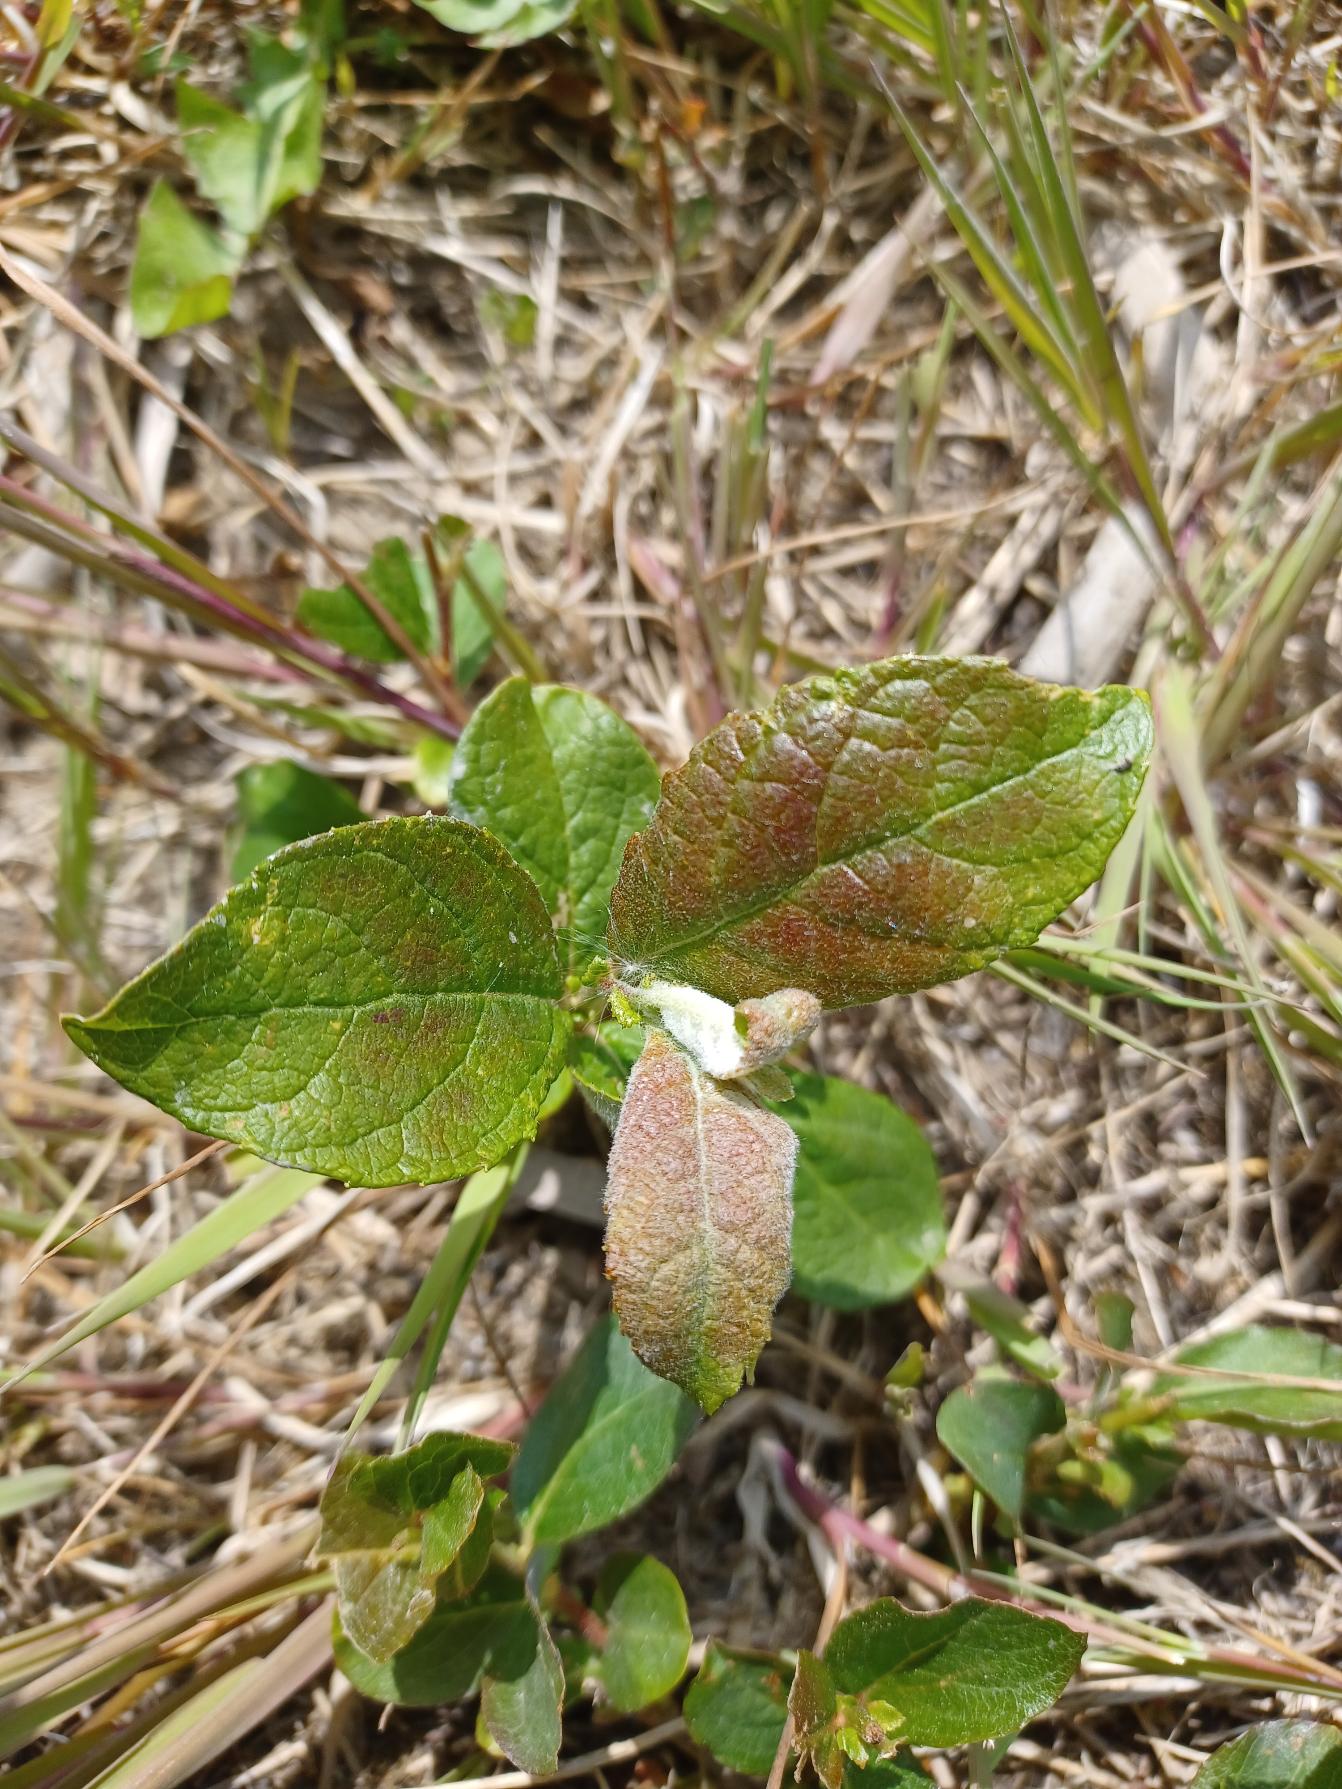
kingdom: Plantae
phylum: Tracheophyta
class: Magnoliopsida
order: Malpighiales
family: Salicaceae
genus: Salix
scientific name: Salix caprea
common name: Selje-pil
